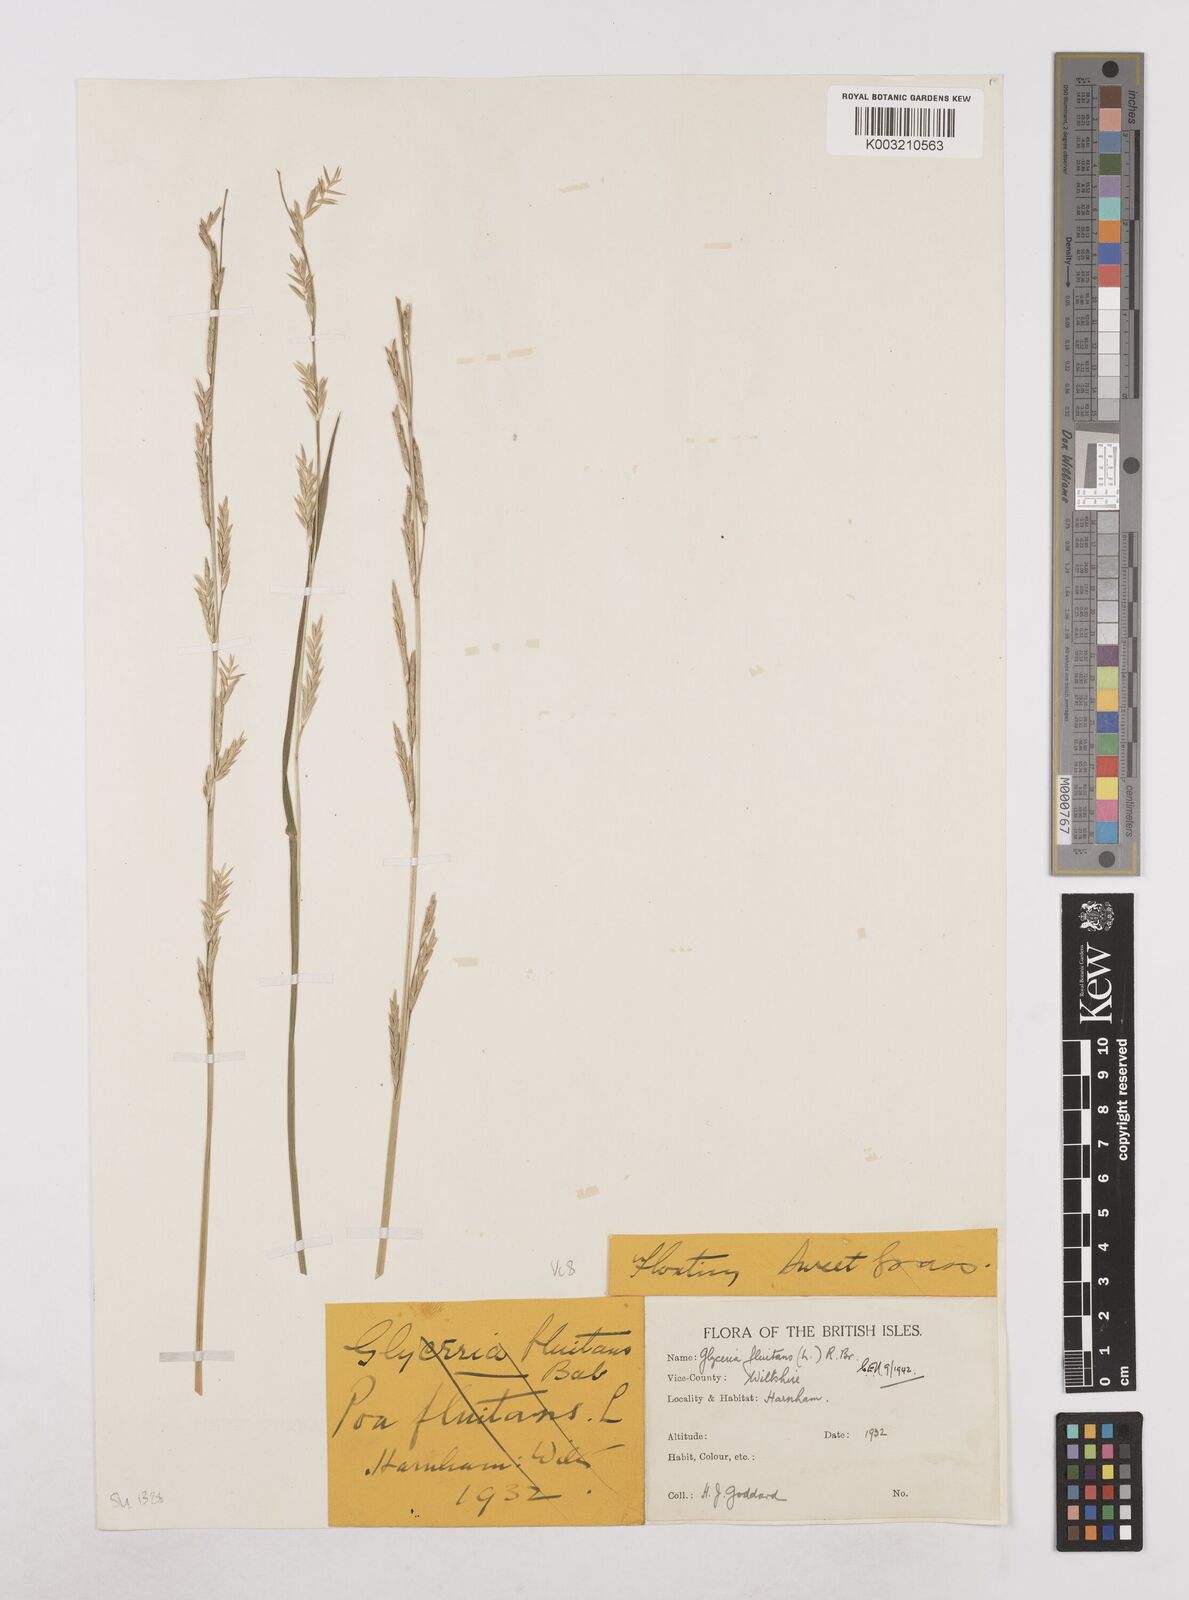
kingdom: Plantae
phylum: Tracheophyta
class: Liliopsida
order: Poales
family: Poaceae
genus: Glyceria
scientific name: Glyceria fluitans
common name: Floating sweet-grass
